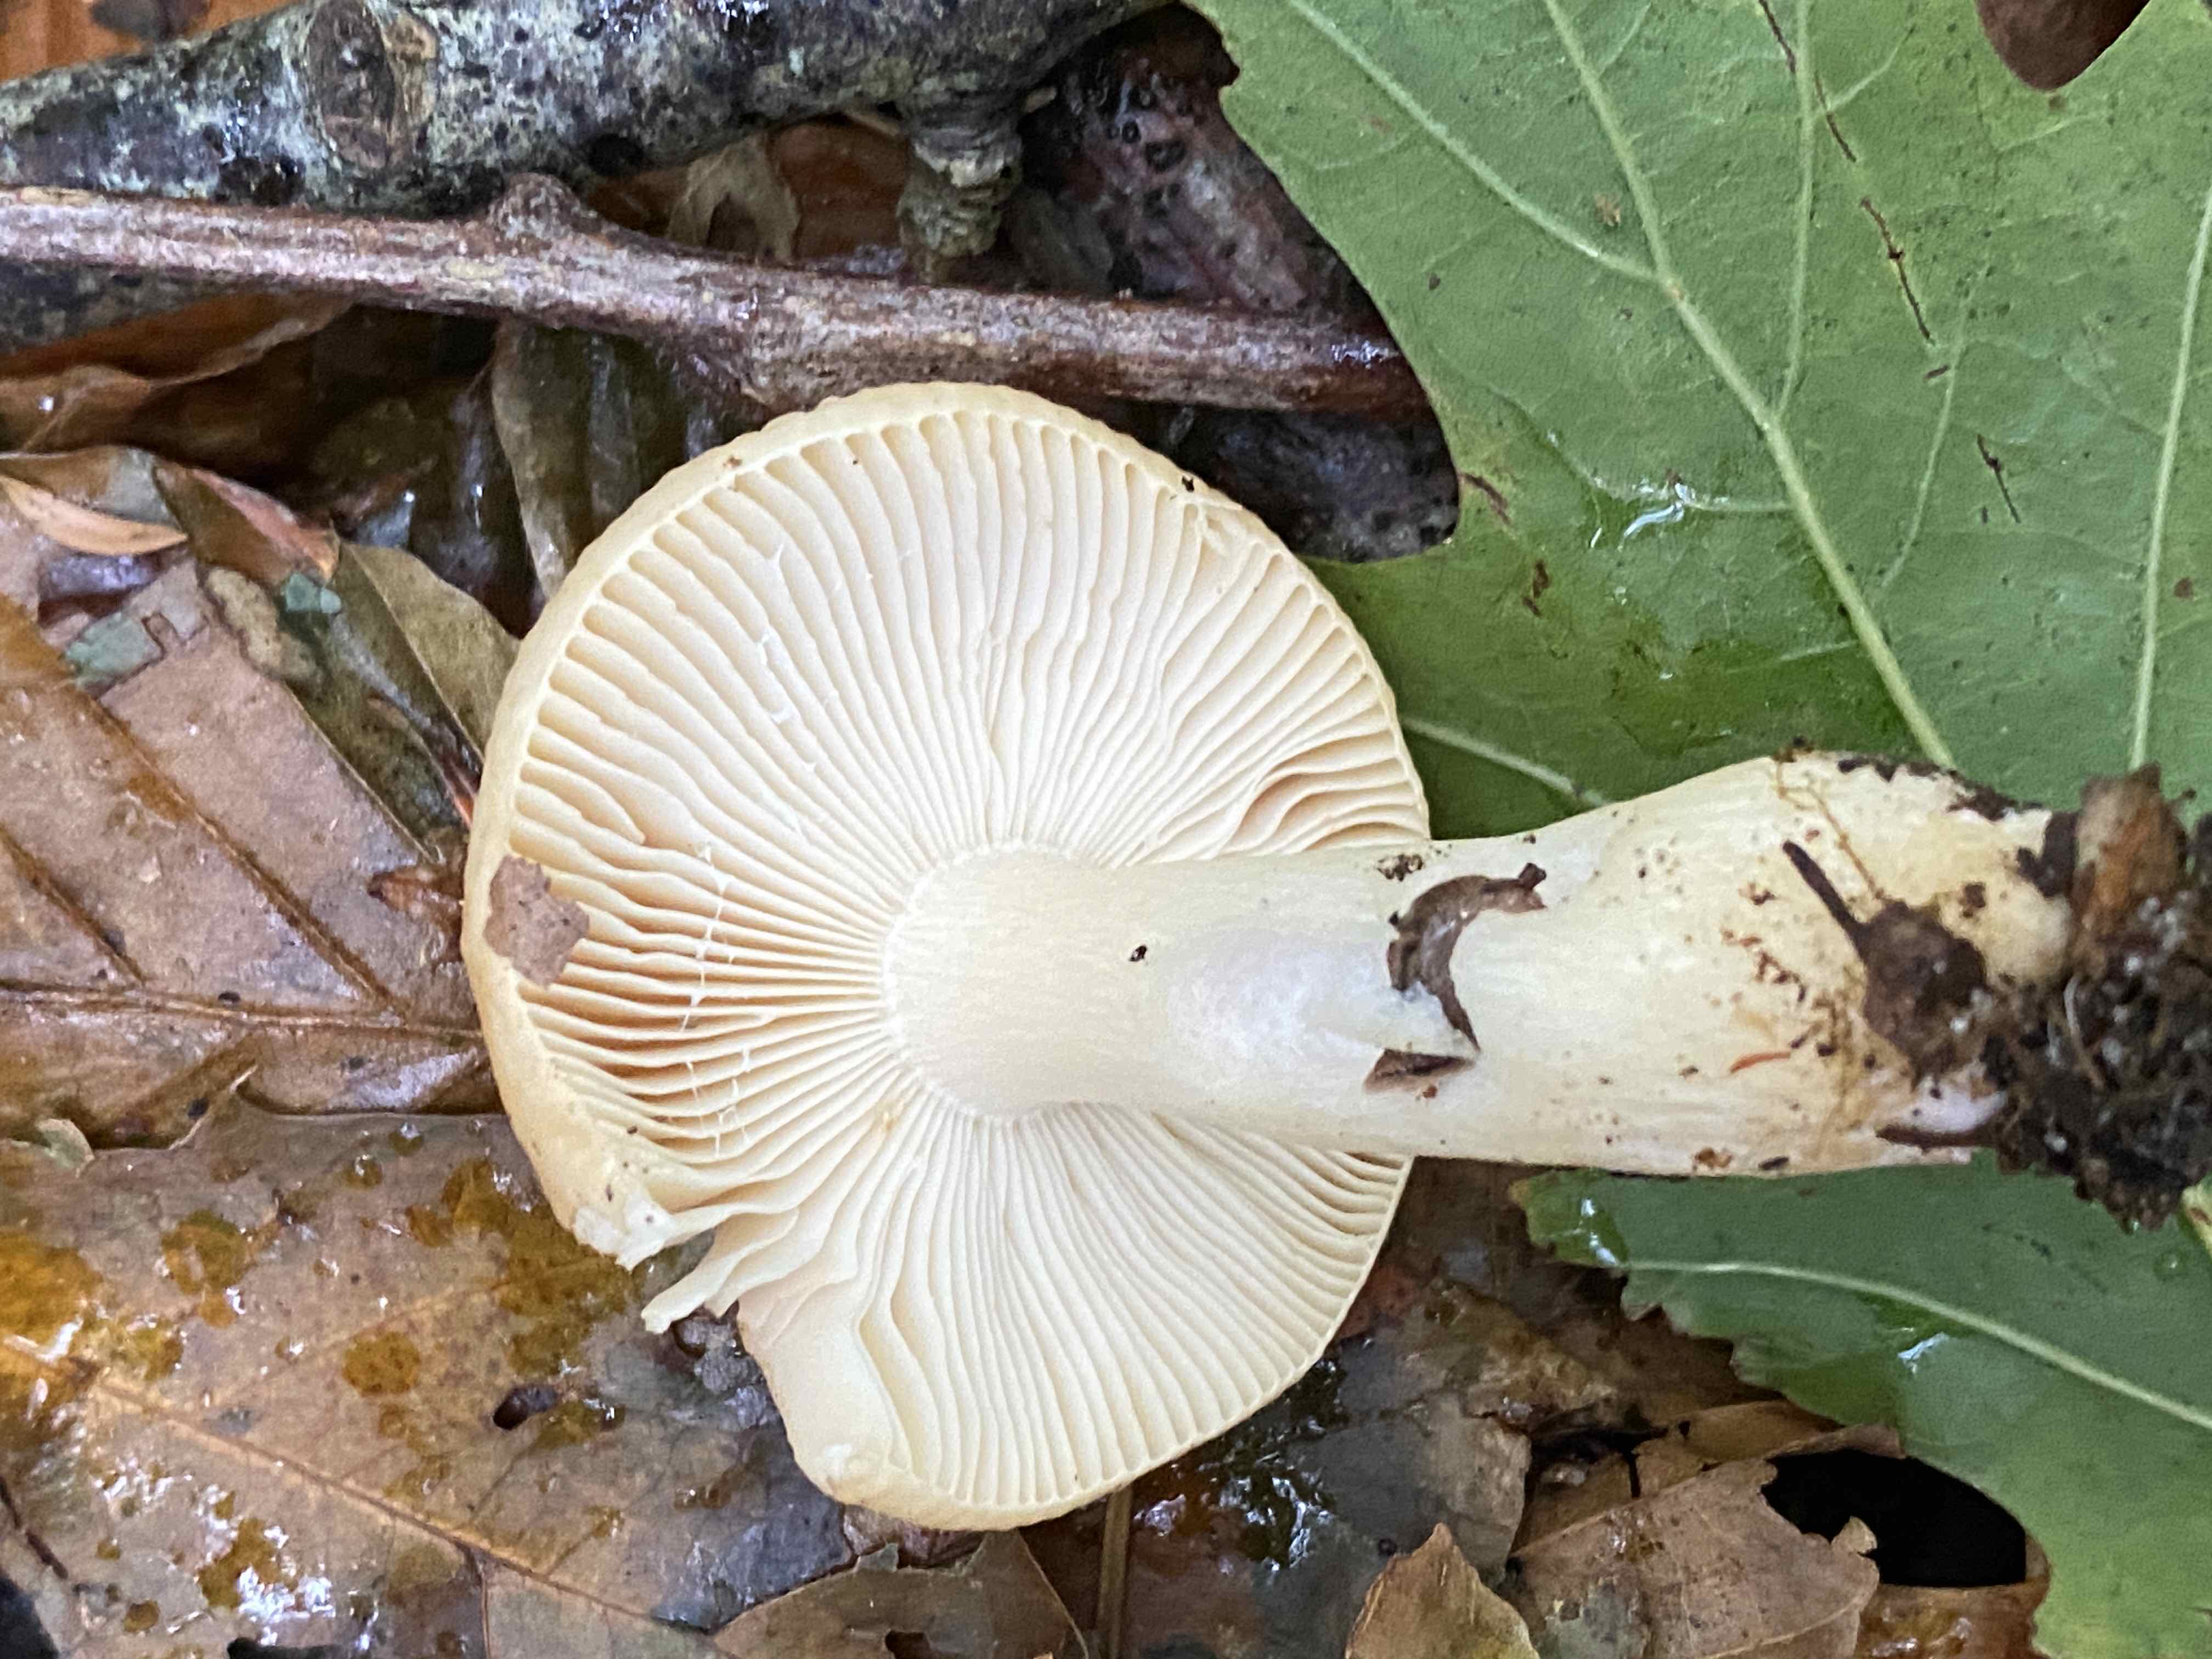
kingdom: Fungi
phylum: Basidiomycota
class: Agaricomycetes
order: Russulales
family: Russulaceae
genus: Russula
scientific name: Russula fellea
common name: galde-skørhat
